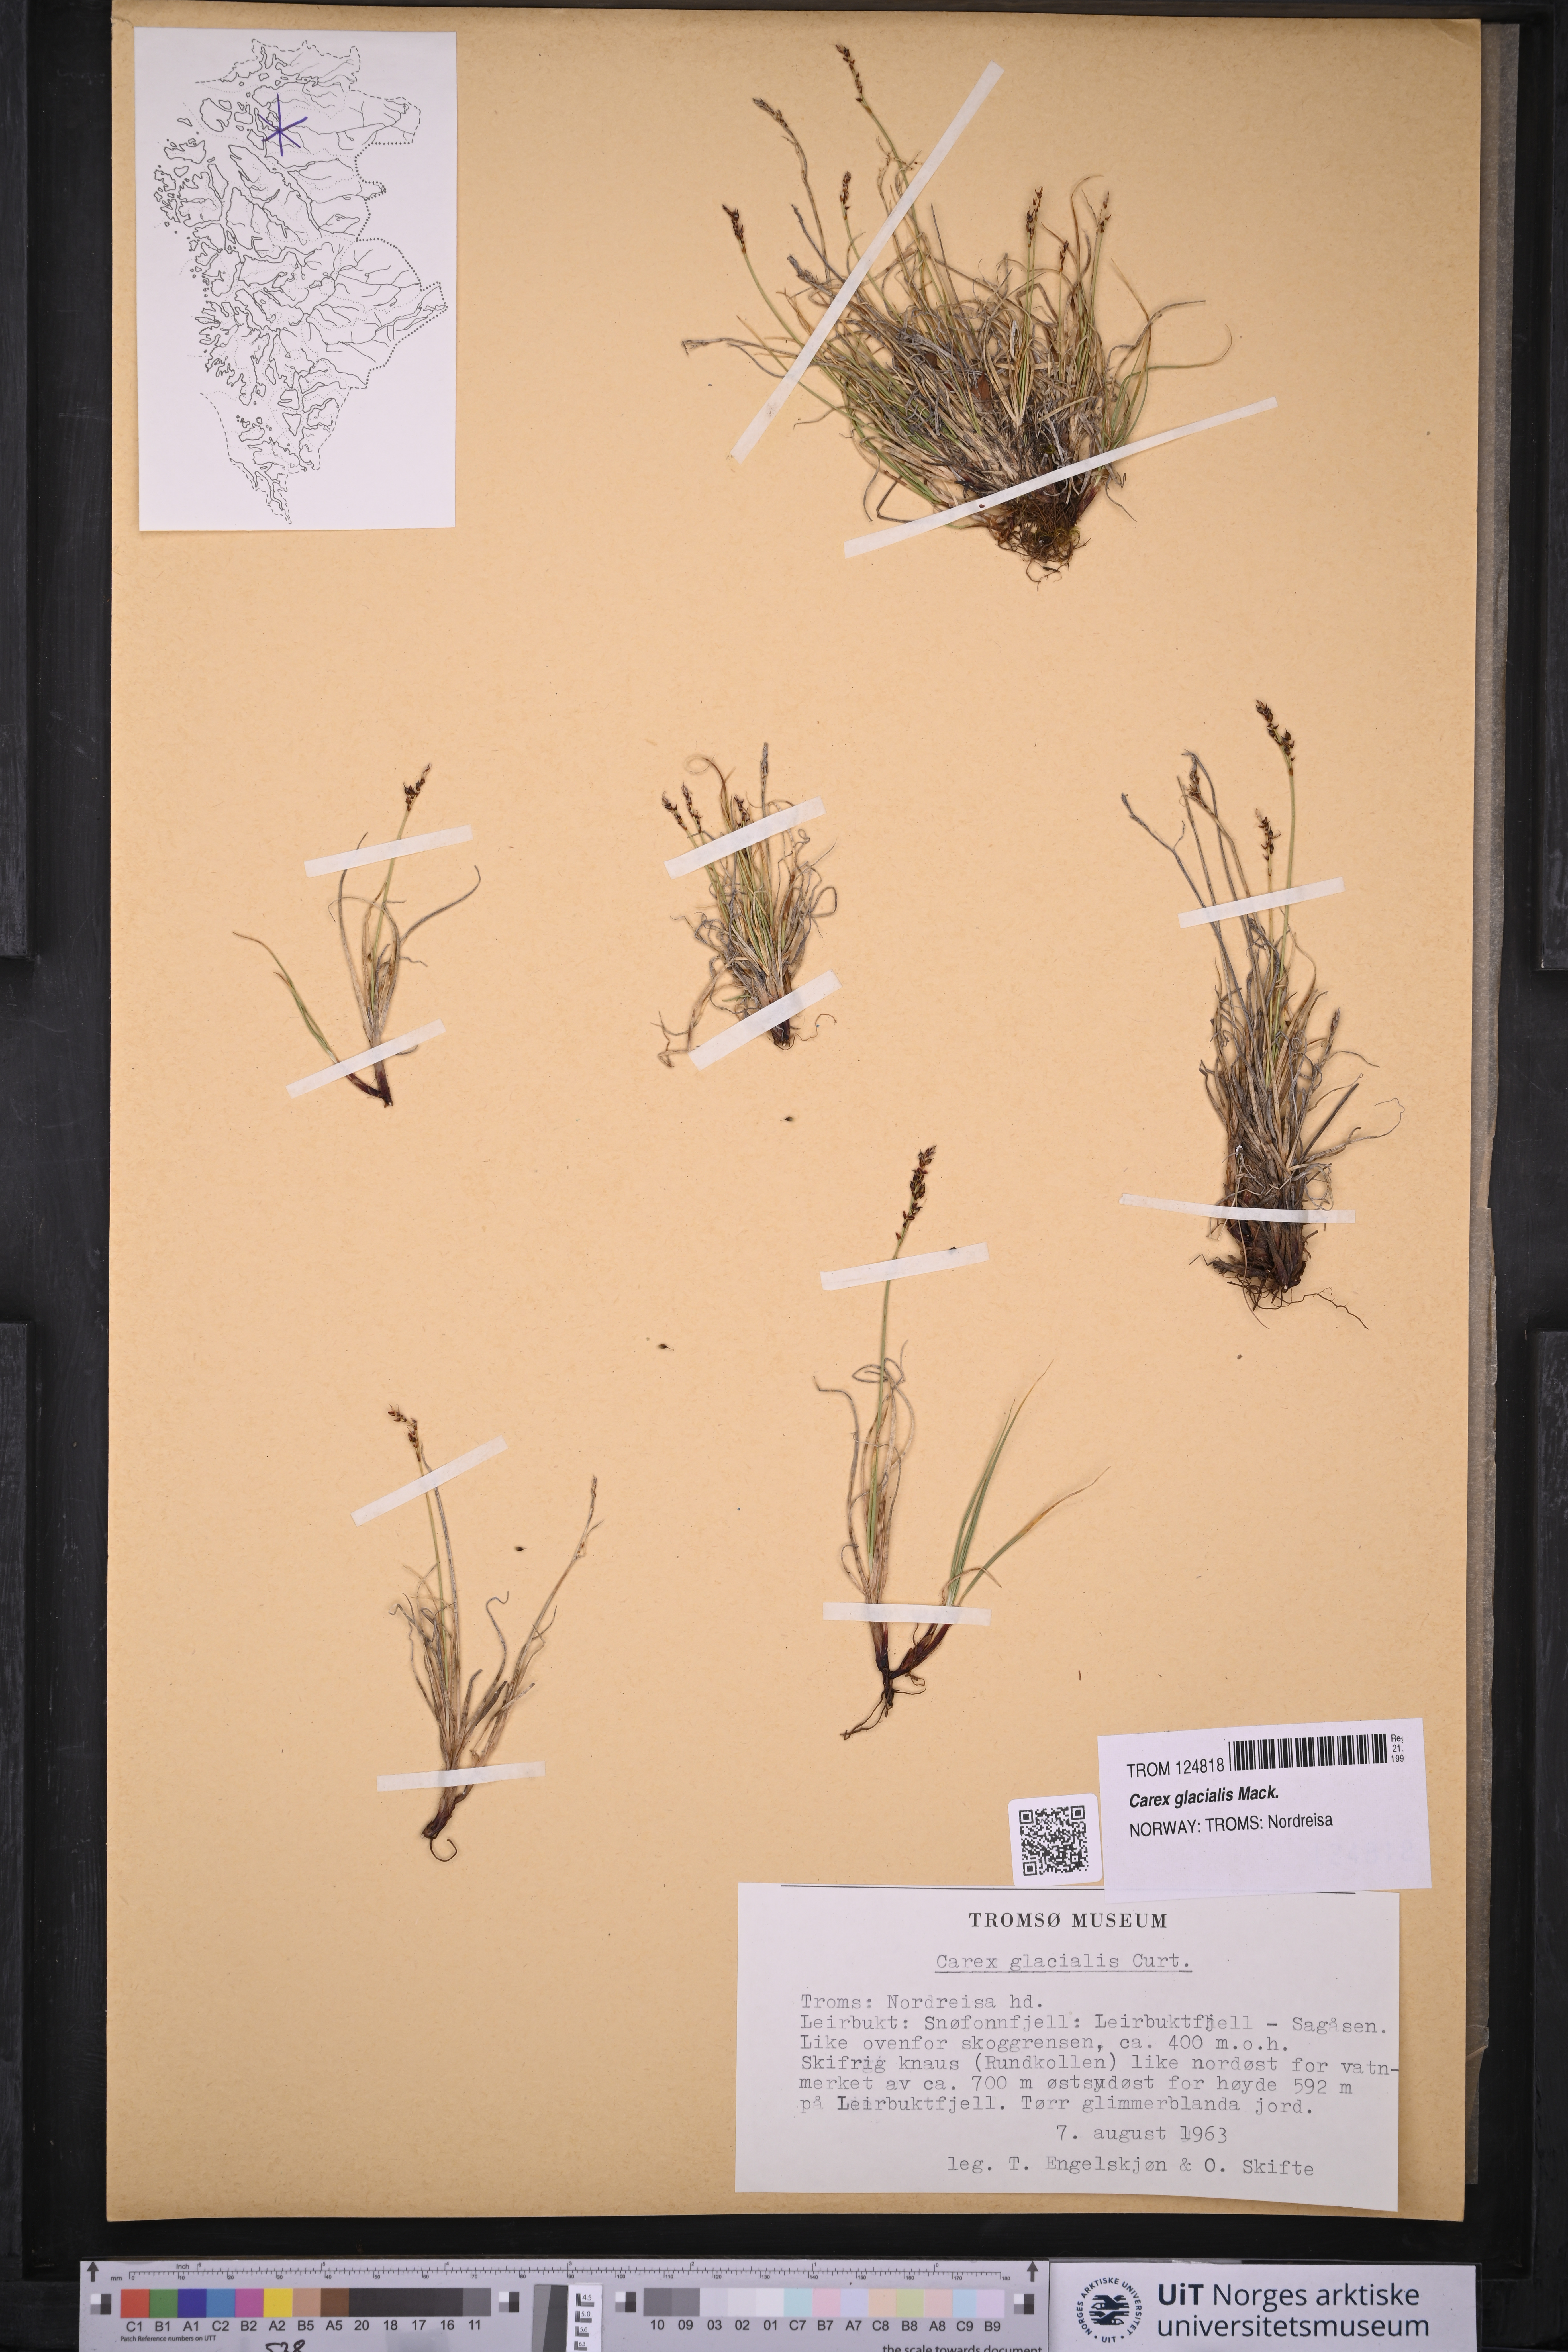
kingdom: Plantae
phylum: Tracheophyta
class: Liliopsida
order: Poales
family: Cyperaceae
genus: Carex
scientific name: Carex glacialis
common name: Newfoundland sedge
